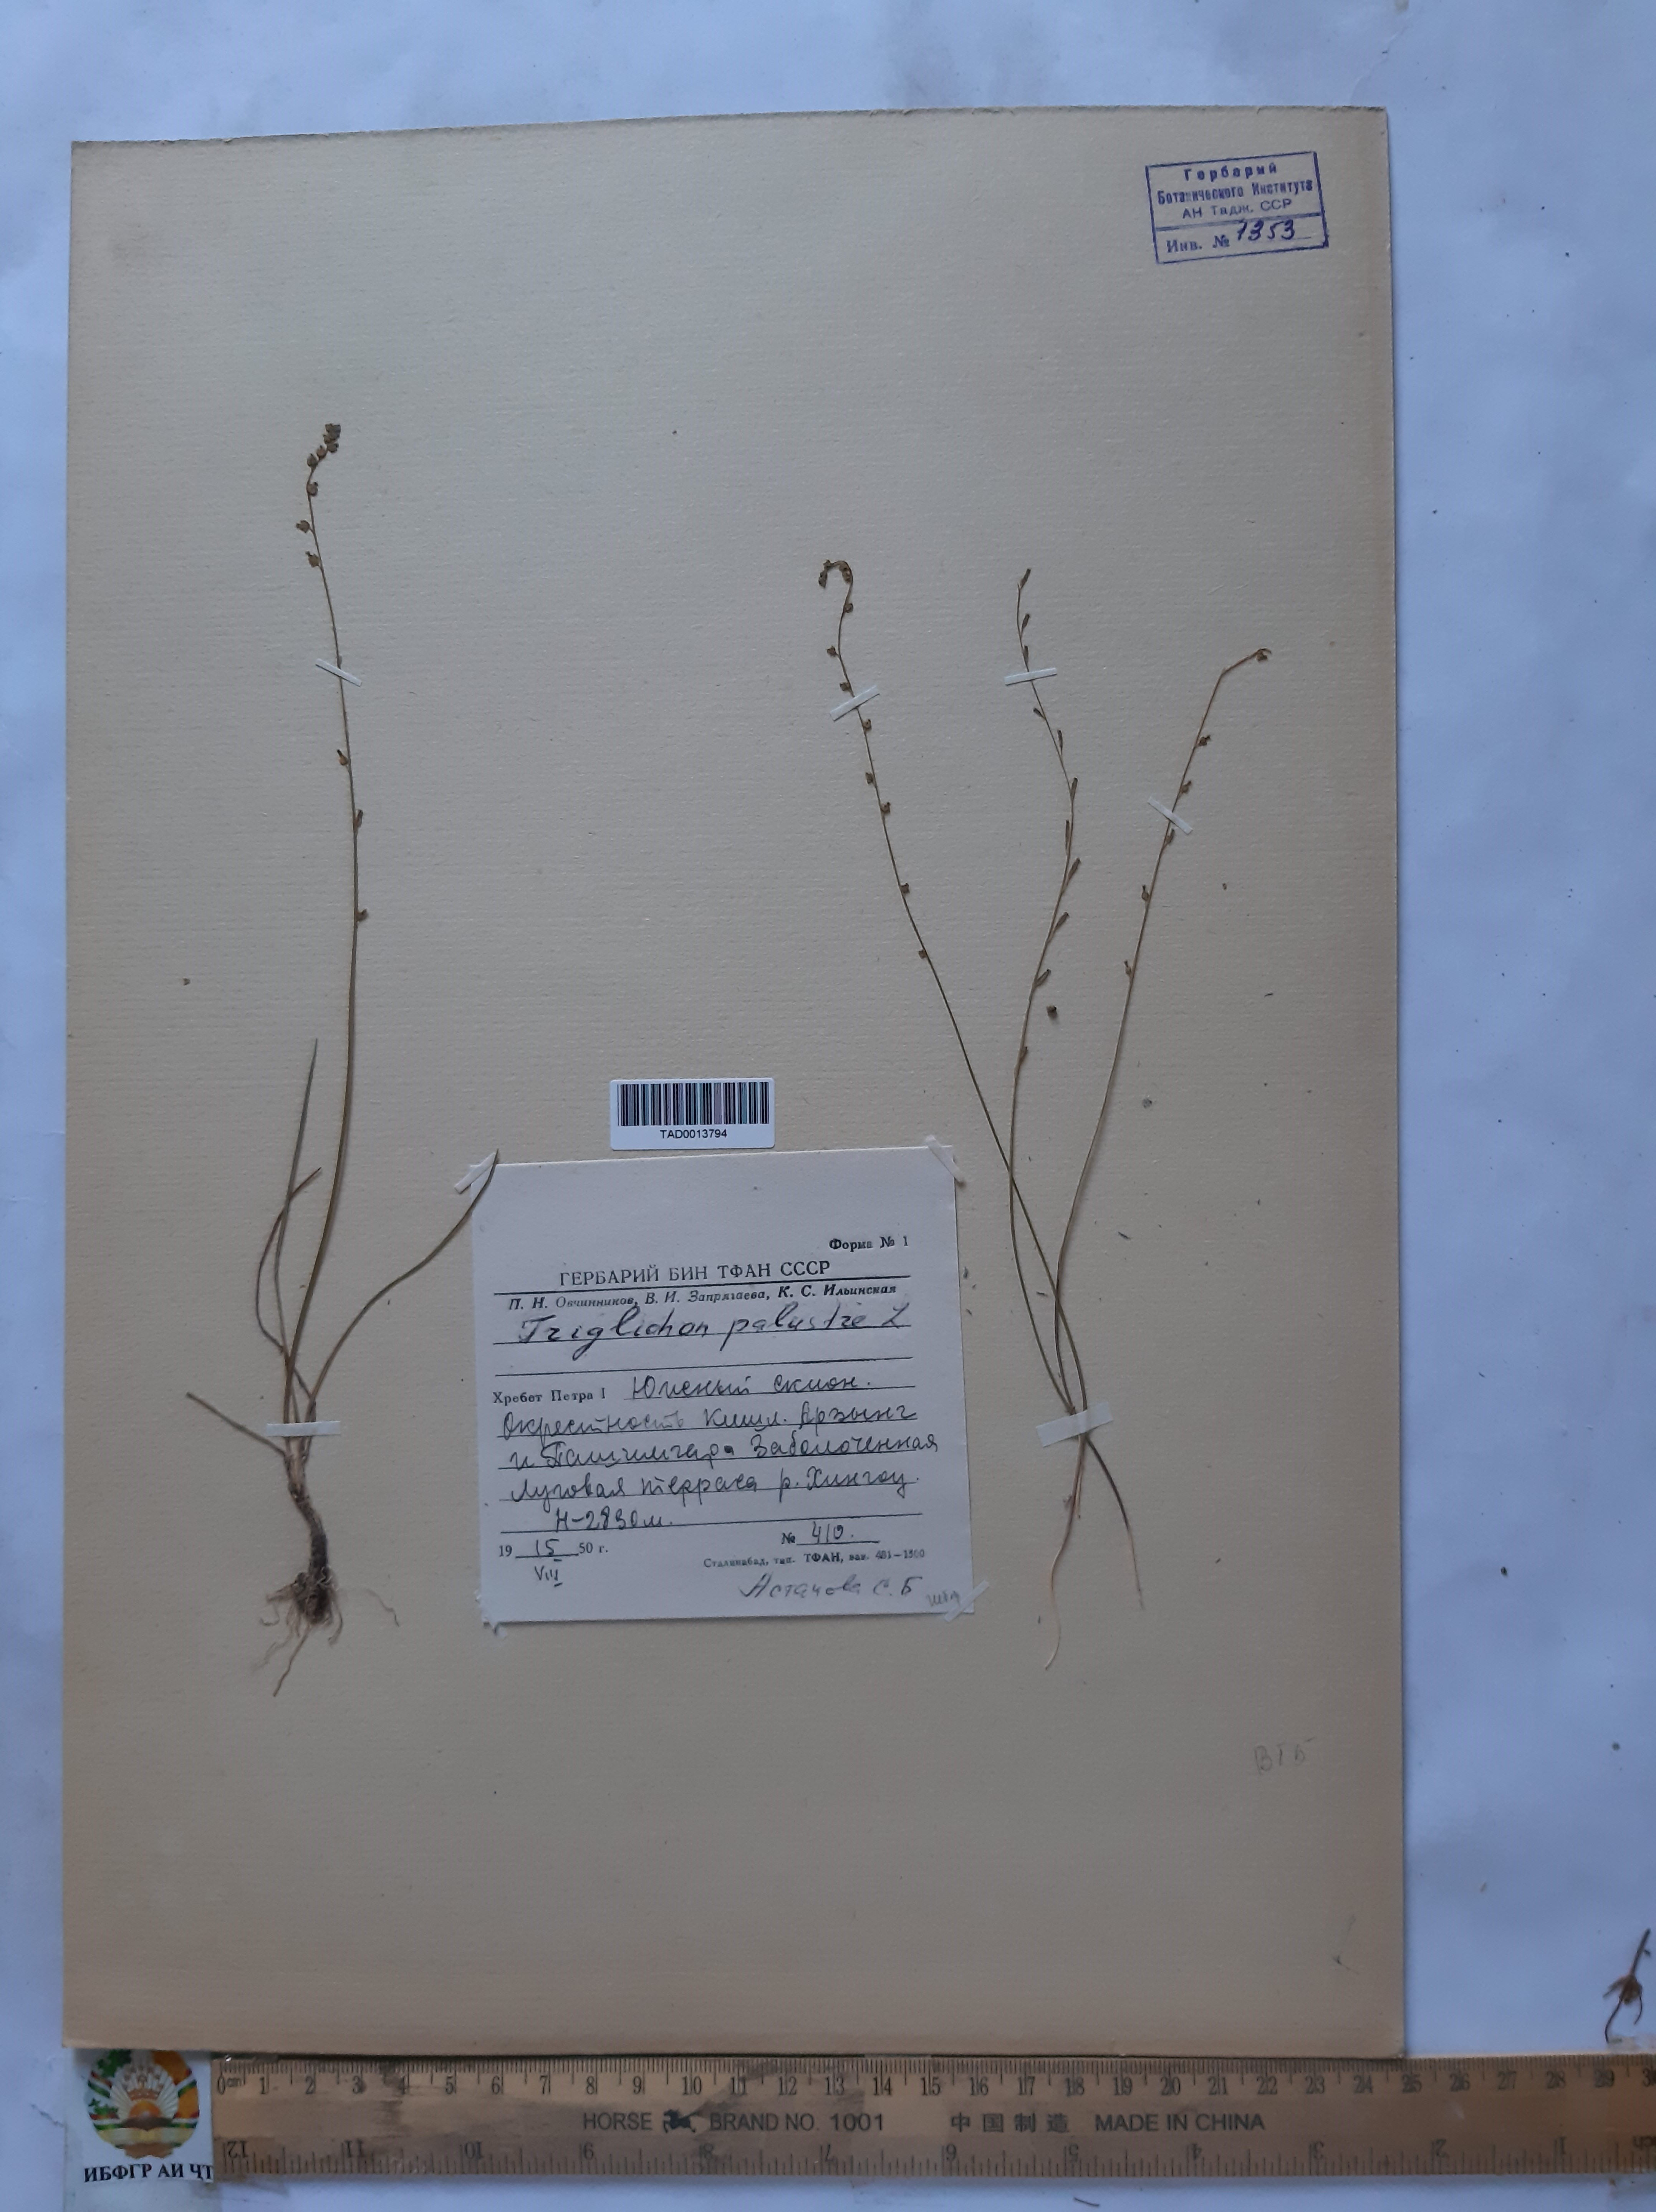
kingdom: Plantae
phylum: Tracheophyta
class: Liliopsida
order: Alismatales
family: Juncaginaceae
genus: Triglochin
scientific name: Triglochin palustris
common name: Marsh arrowgrass
